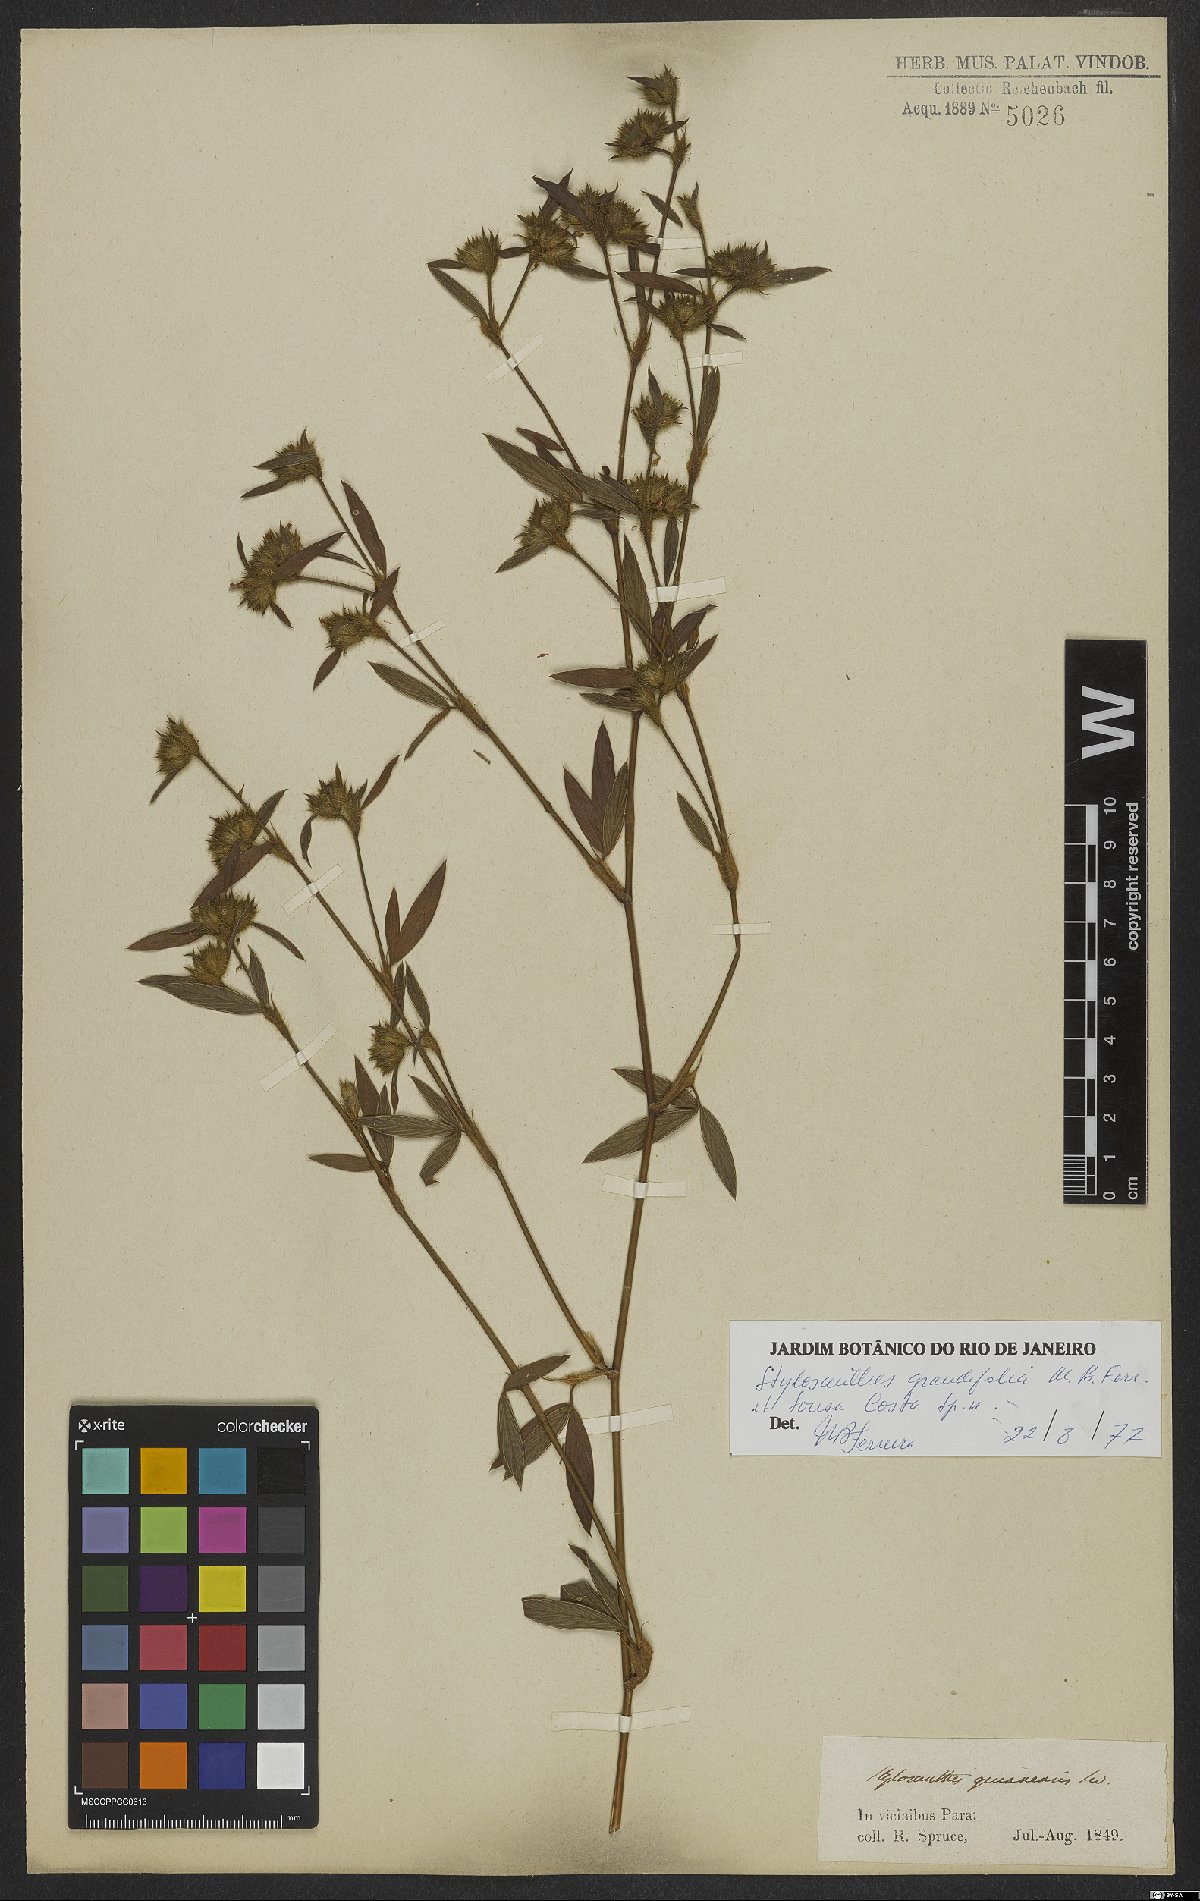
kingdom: Plantae
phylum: Tracheophyta
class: Magnoliopsida
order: Fabales
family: Fabaceae
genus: Stylosanthes
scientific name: Stylosanthes guianensis
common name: Pencil flower
